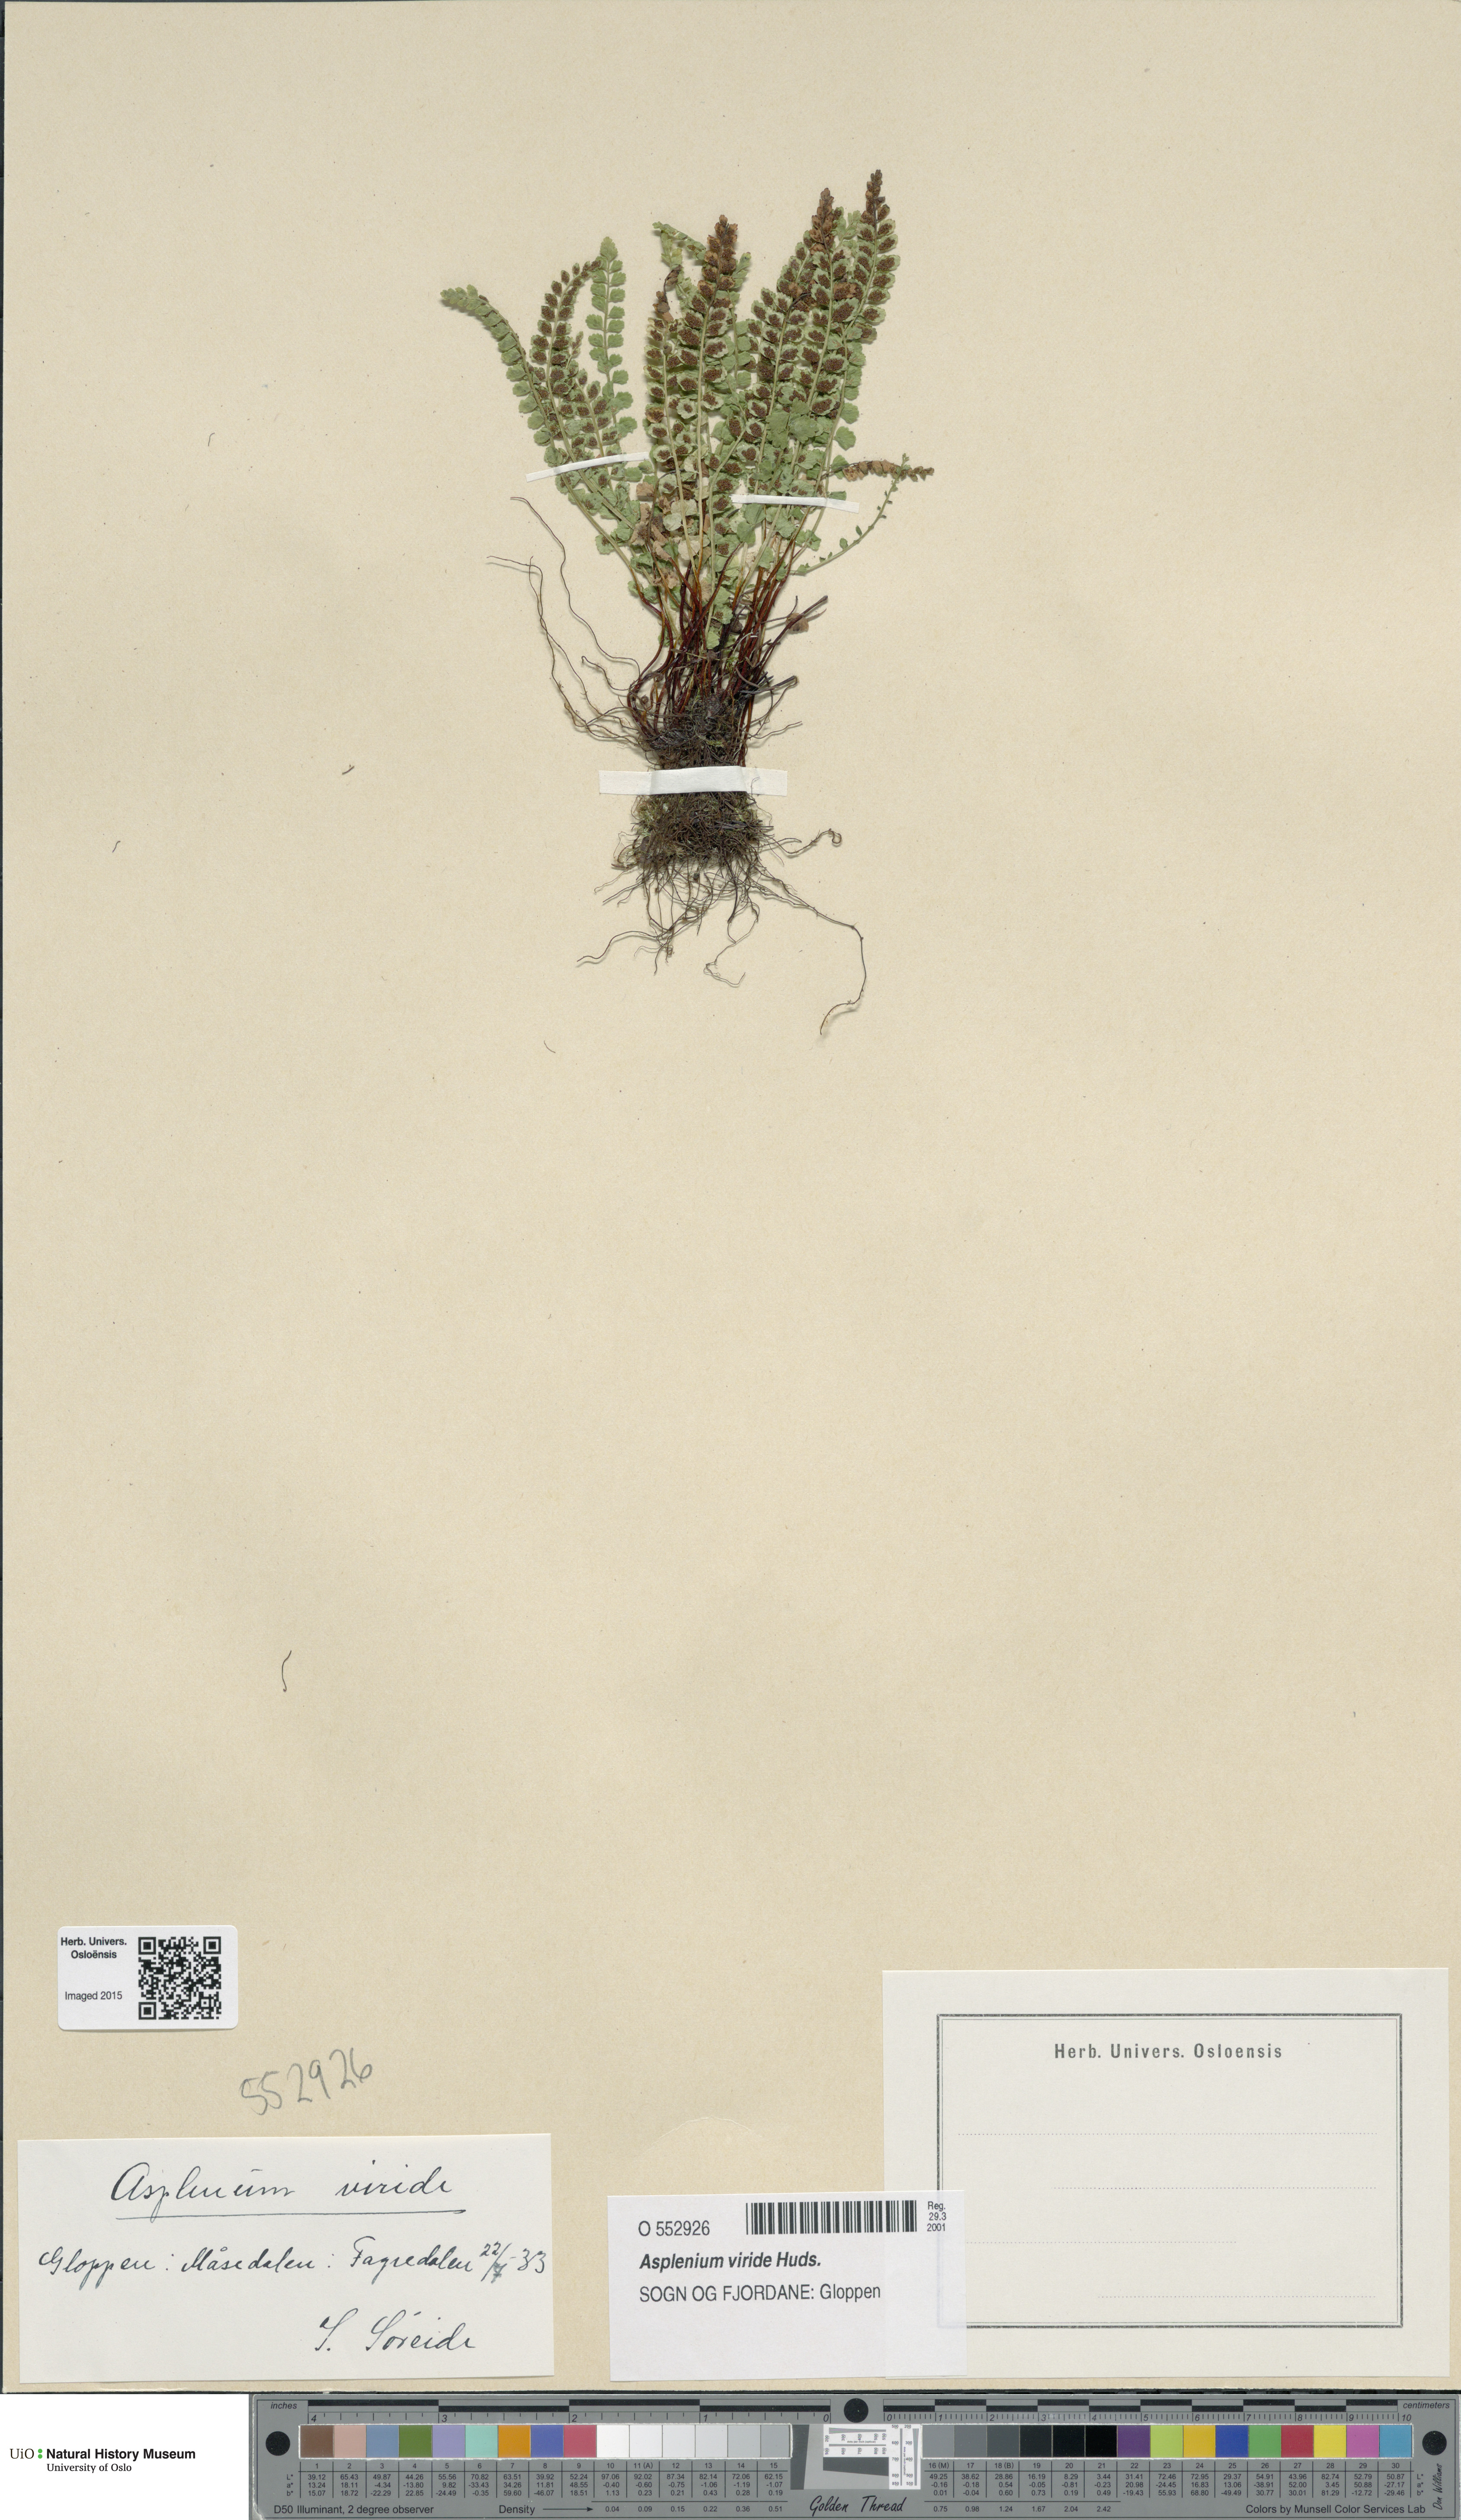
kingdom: Plantae
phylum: Tracheophyta
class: Polypodiopsida
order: Polypodiales
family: Aspleniaceae
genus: Asplenium
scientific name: Asplenium viride
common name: Green spleenwort
